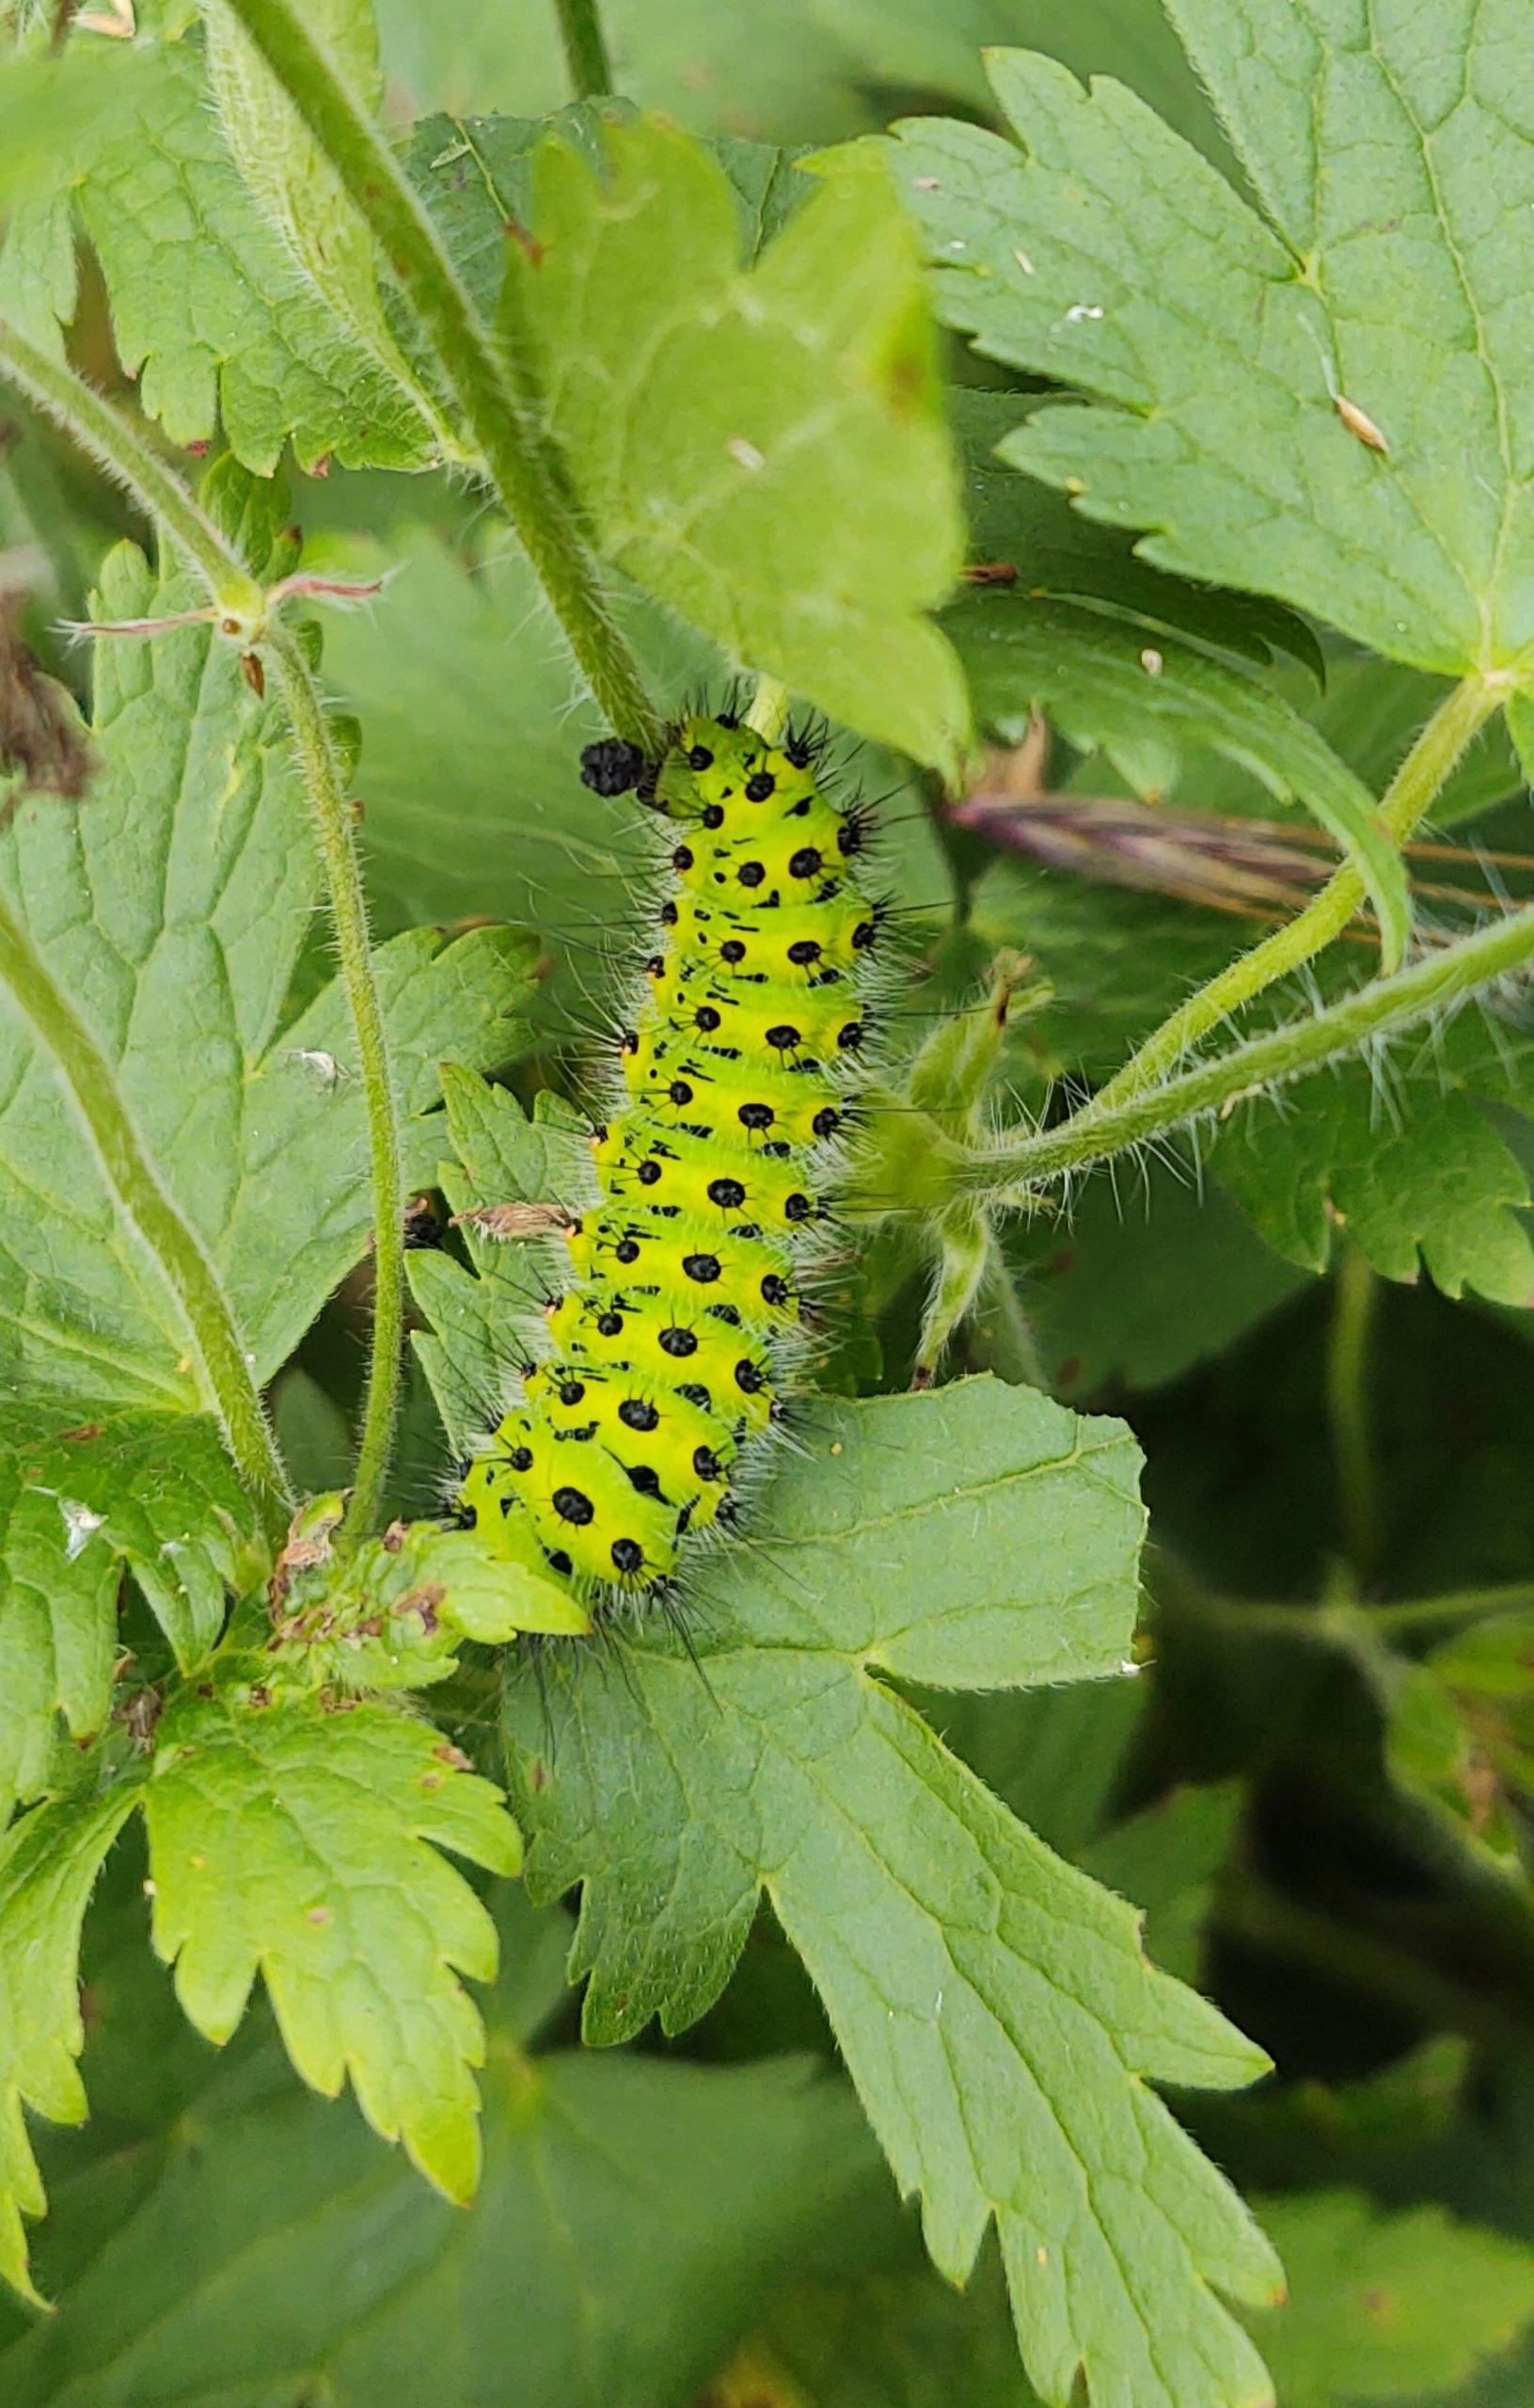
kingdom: Animalia
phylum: Arthropoda
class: Insecta
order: Lepidoptera
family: Saturniidae
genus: Saturnia
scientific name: Saturnia pavonia
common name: Lille natpåfugleøje
